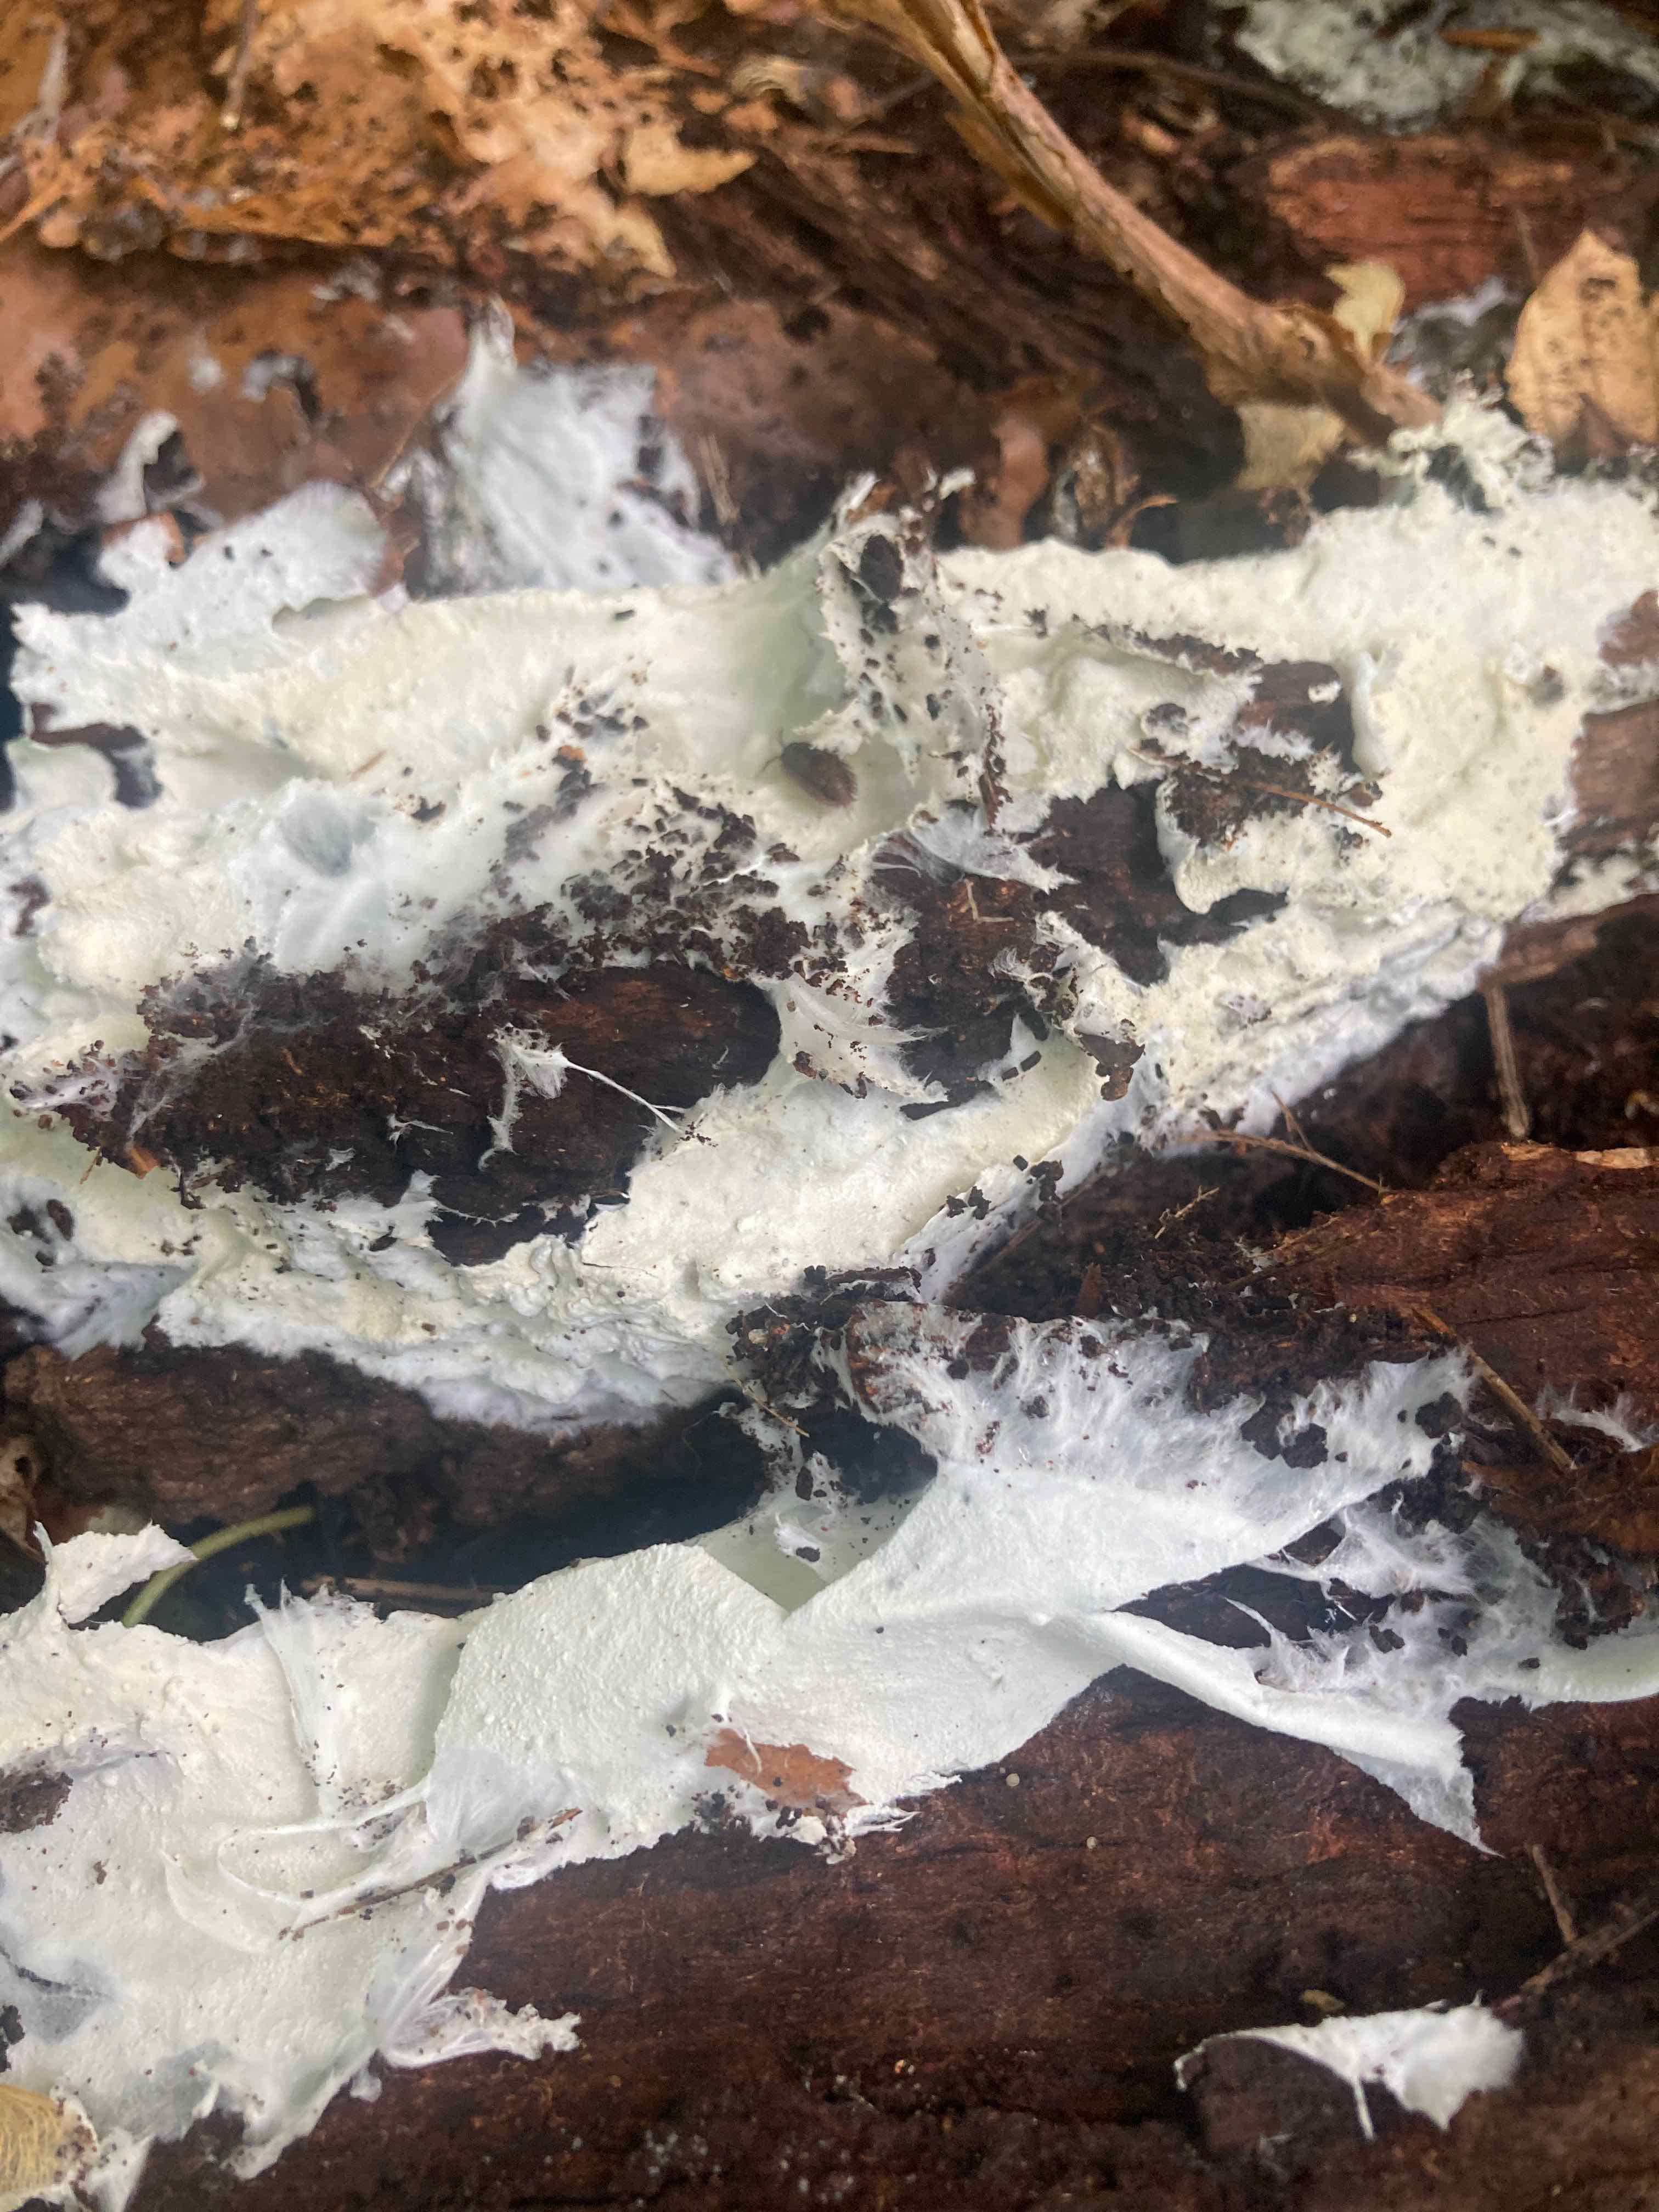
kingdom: Fungi
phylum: Basidiomycota
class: Agaricomycetes
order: Trechisporales
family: Sistotremataceae
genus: Trechispora
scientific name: Trechispora cohaerens
